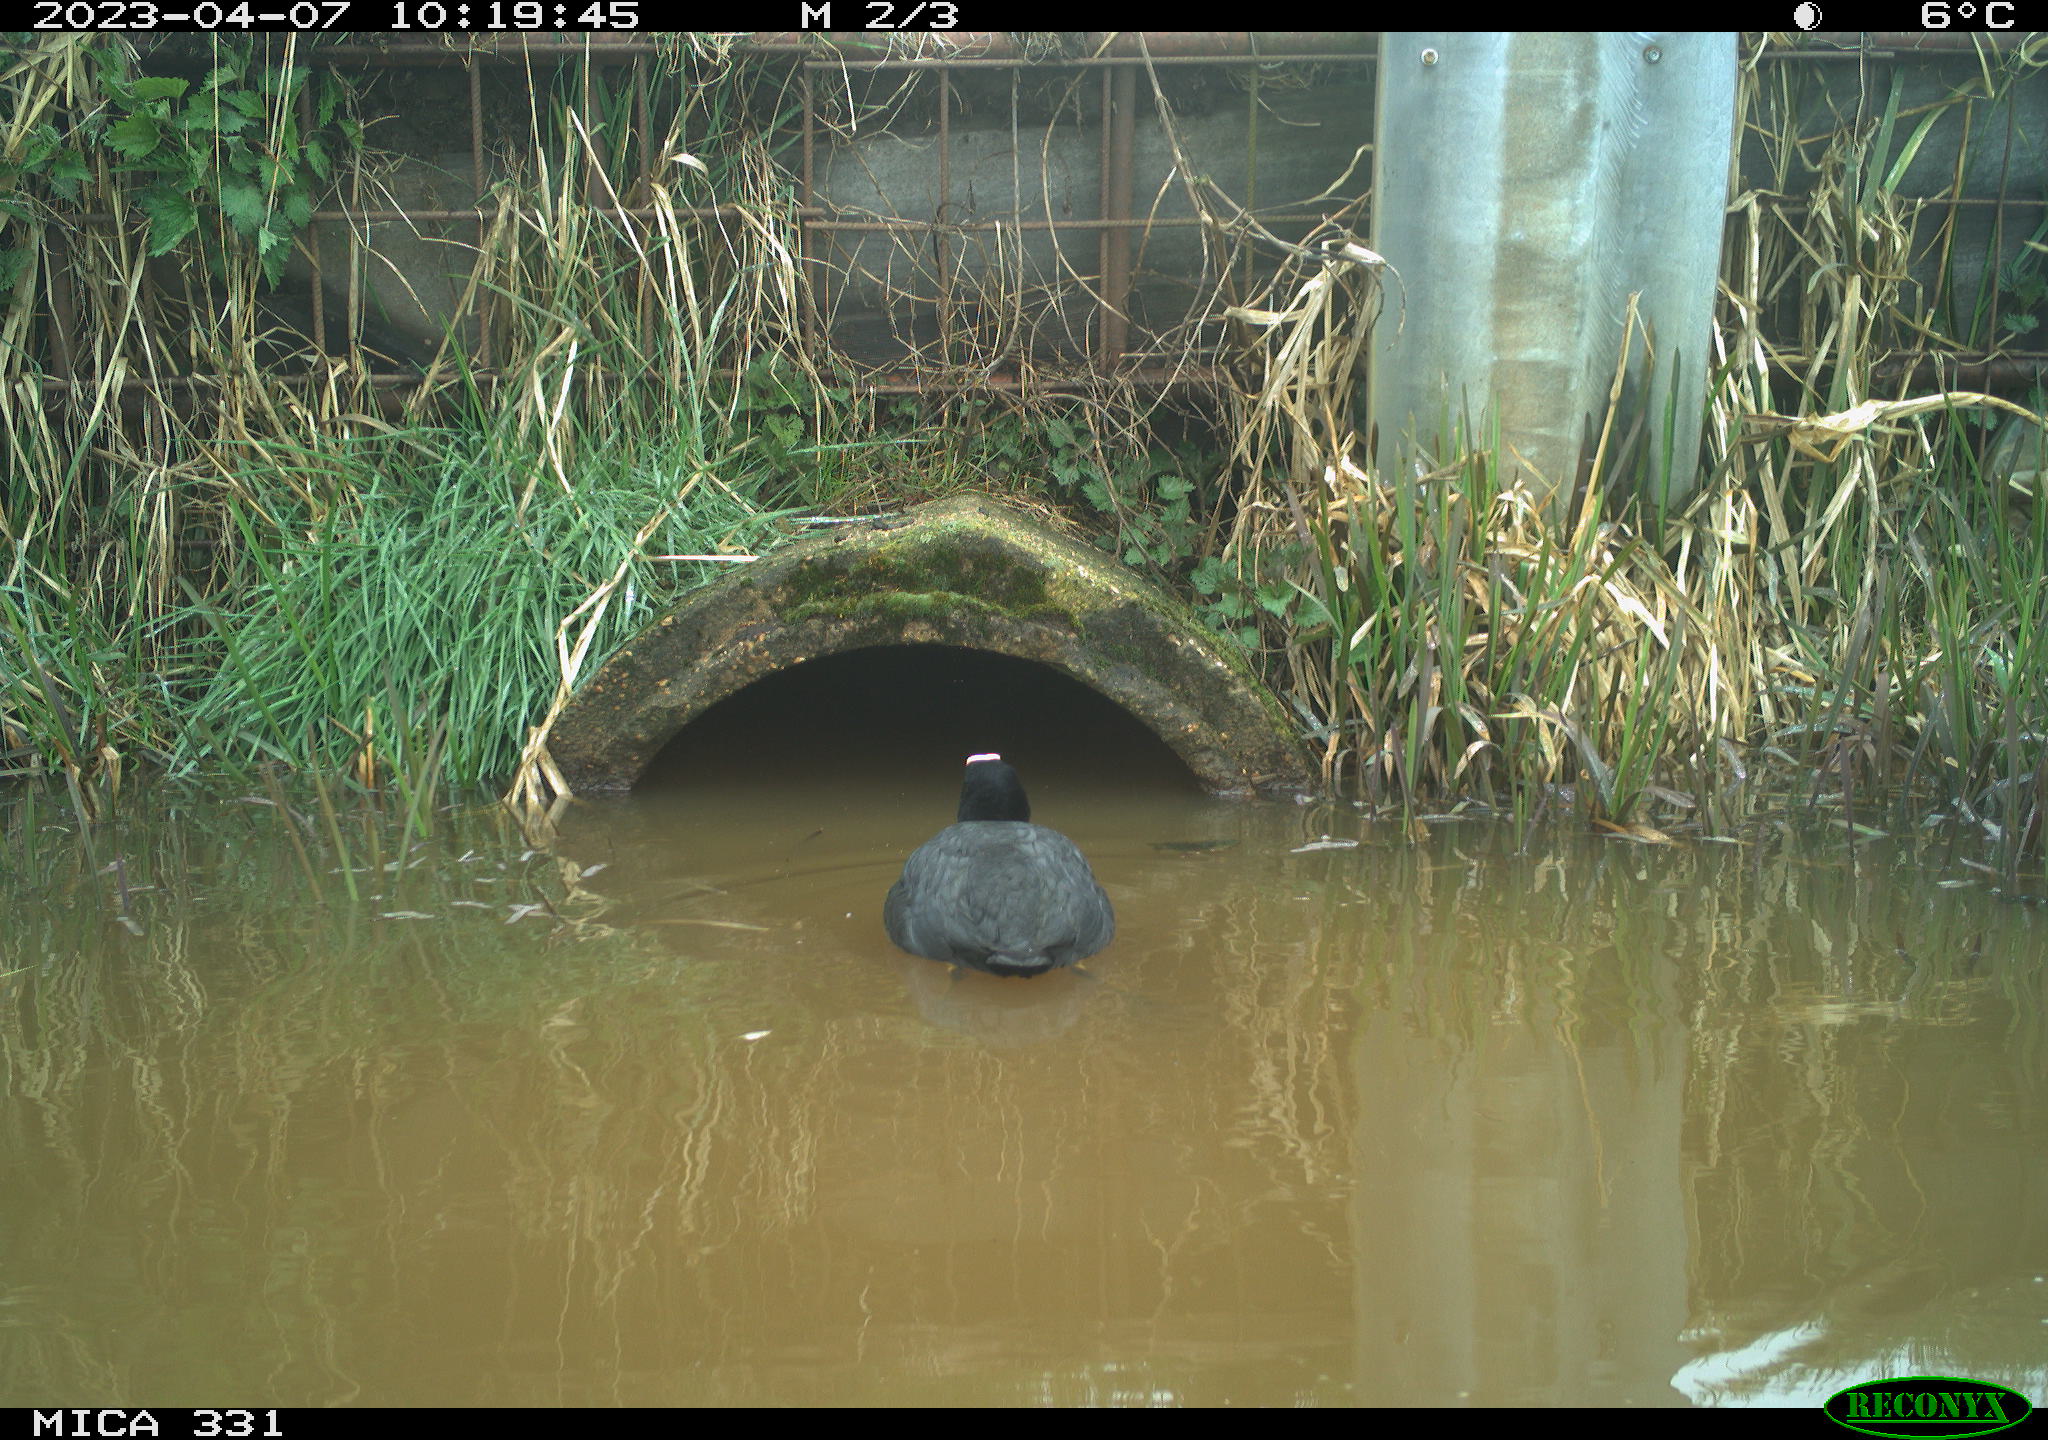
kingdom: Animalia
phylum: Chordata
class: Aves
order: Gruiformes
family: Rallidae
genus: Fulica
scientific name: Fulica atra
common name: Eurasian coot
